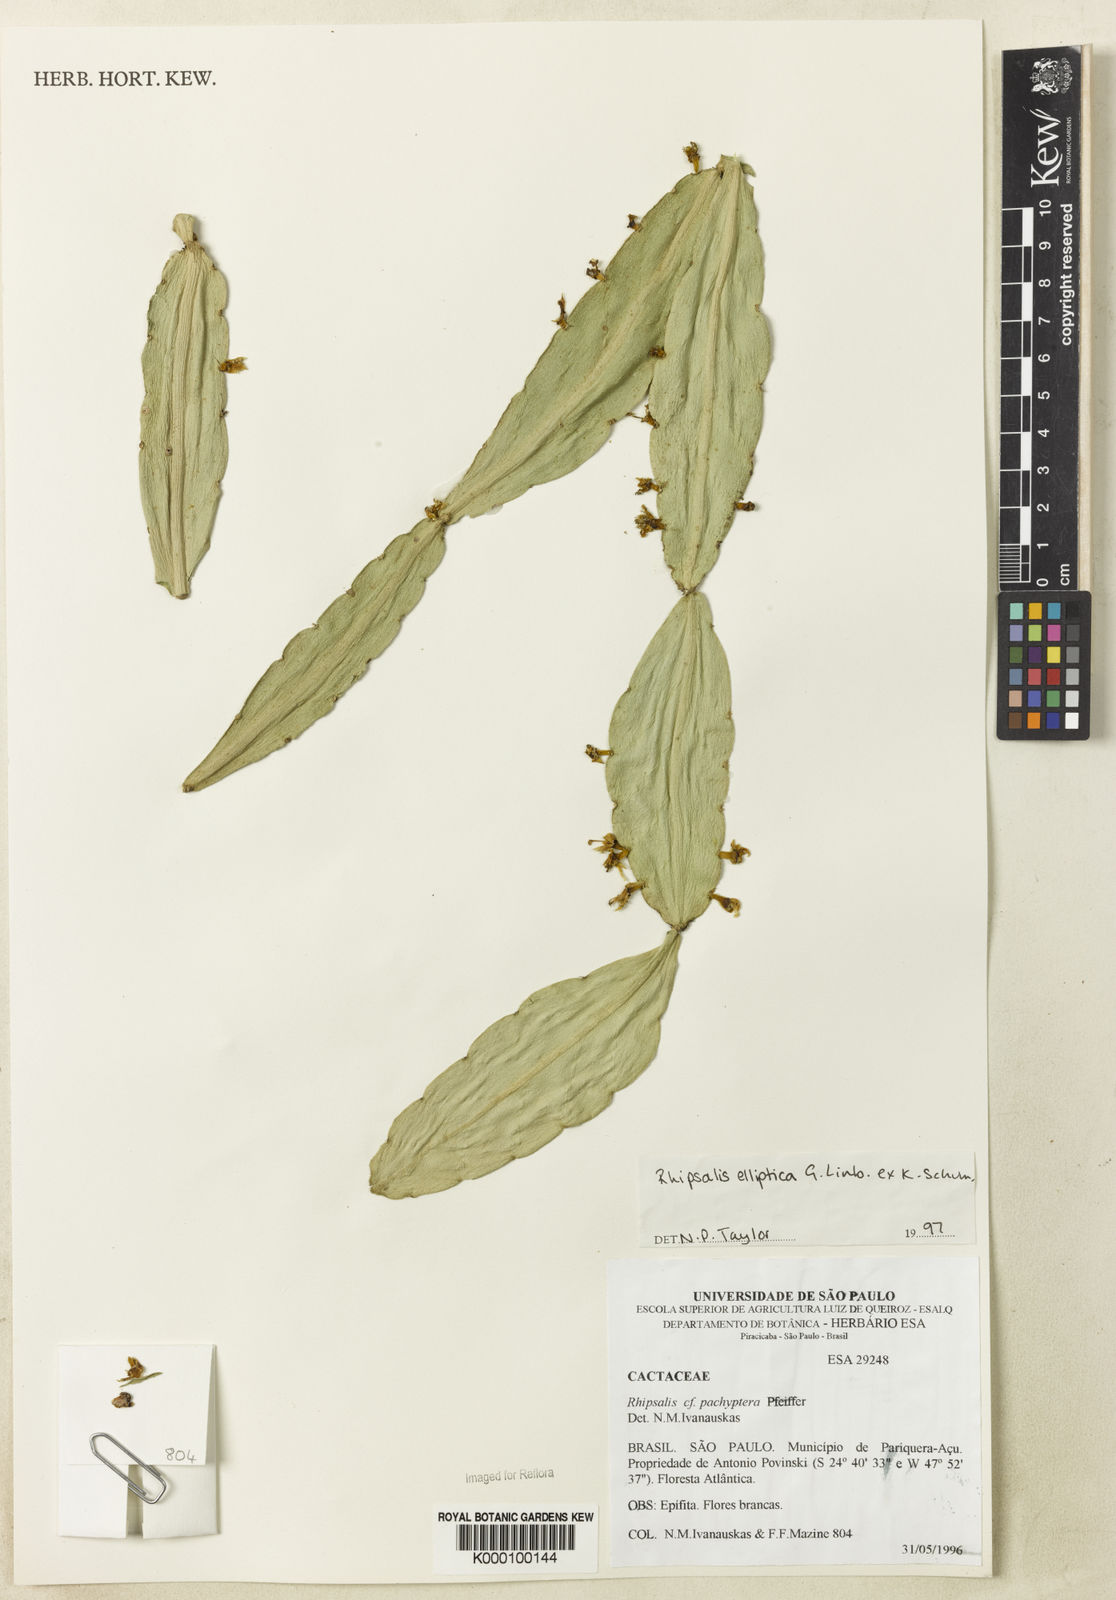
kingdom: Plantae
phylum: Tracheophyta
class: Magnoliopsida
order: Caryophyllales
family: Cactaceae
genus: Rhipsalis
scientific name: Rhipsalis elliptica
